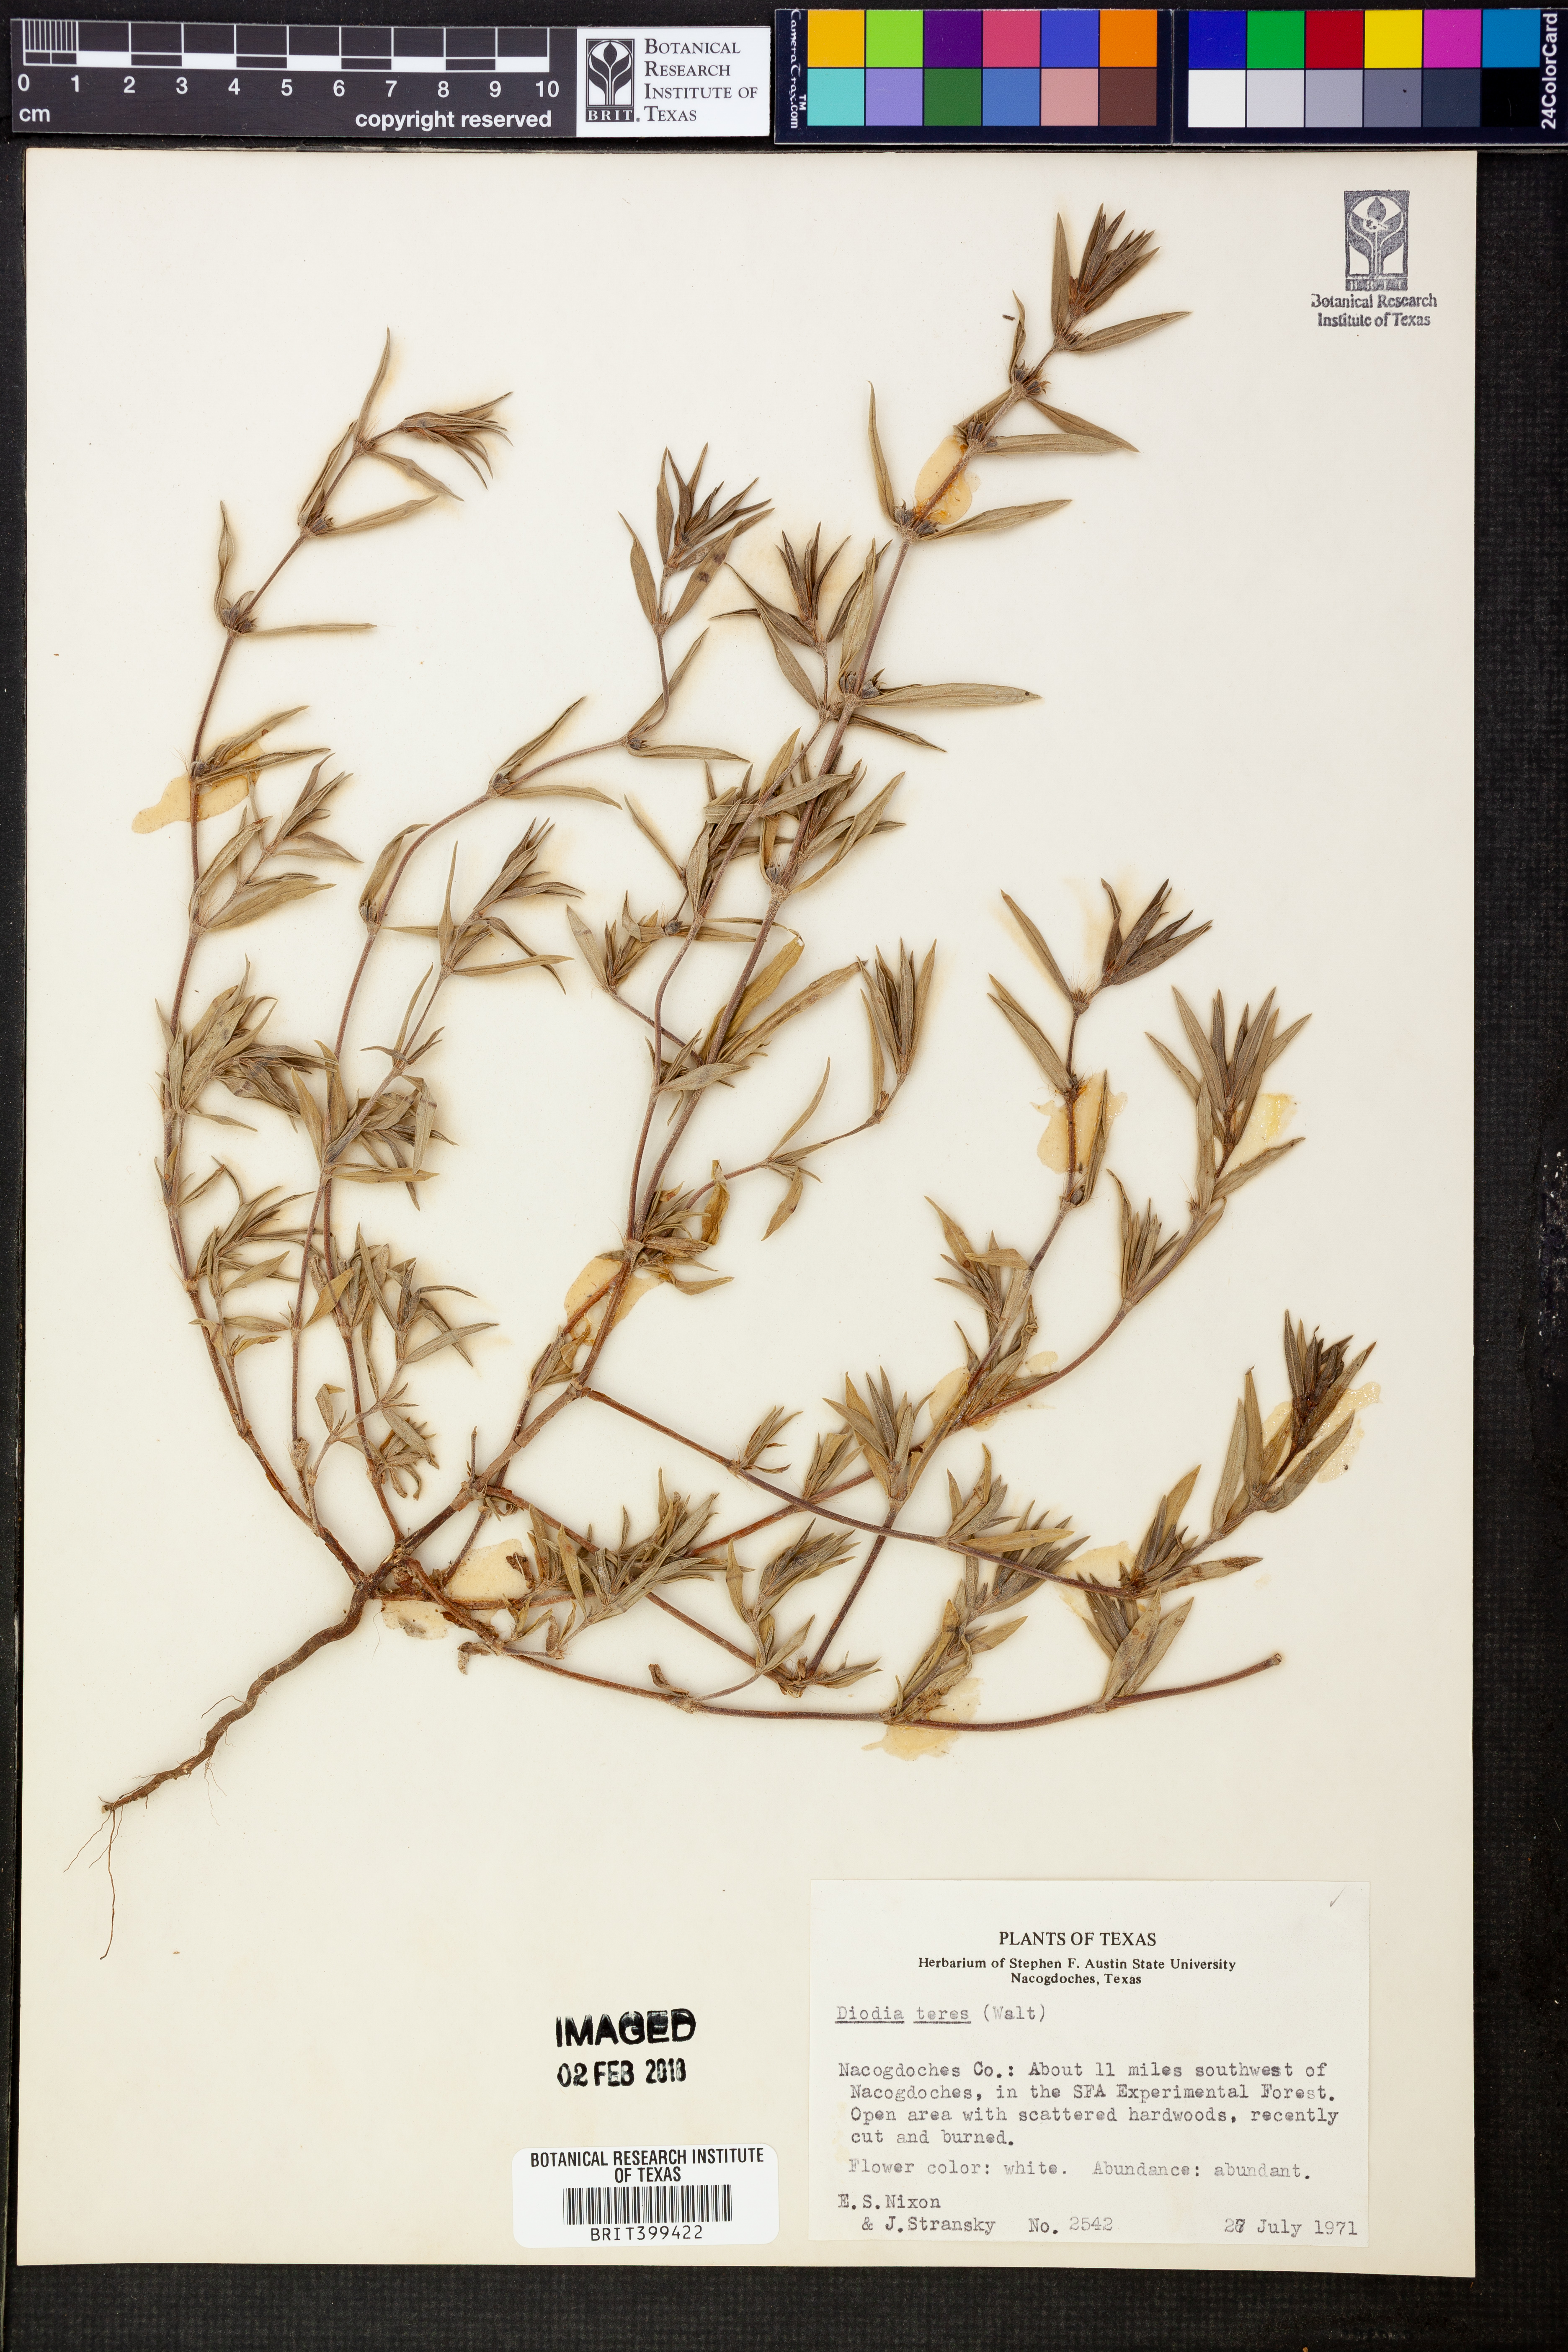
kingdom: Plantae
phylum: Tracheophyta
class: Magnoliopsida
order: Gentianales
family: Rubiaceae
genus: Hexasepalum
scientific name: Hexasepalum teres
